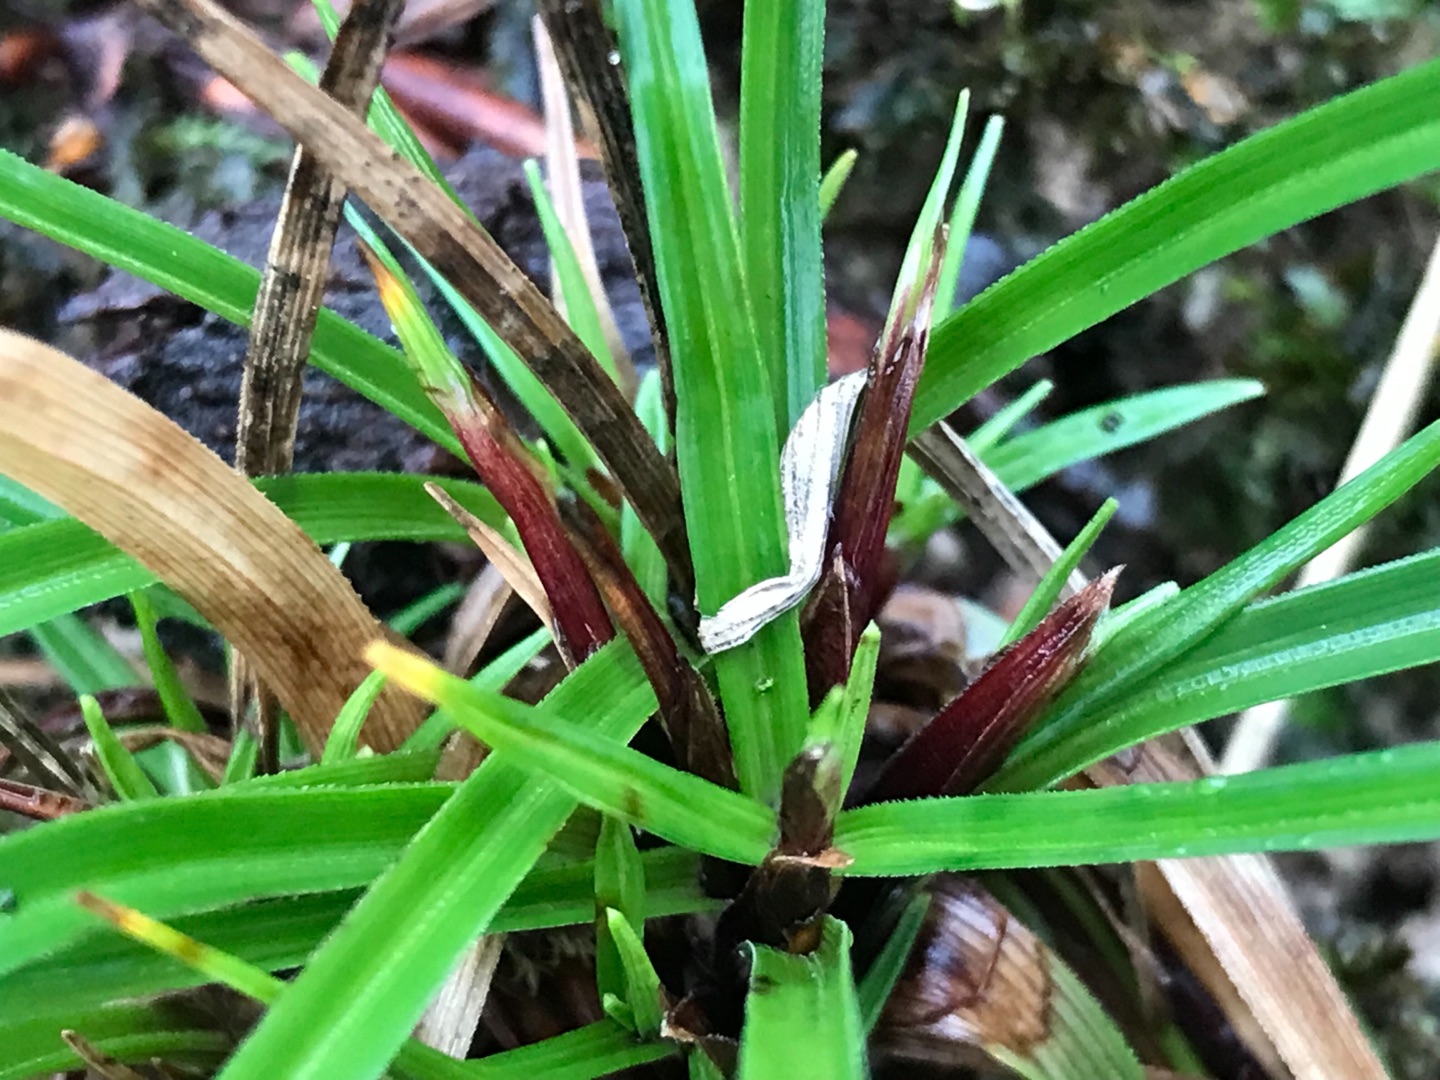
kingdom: Plantae
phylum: Tracheophyta
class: Liliopsida
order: Poales
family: Cyperaceae
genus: Carex
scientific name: Carex digitata
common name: Finger-star
